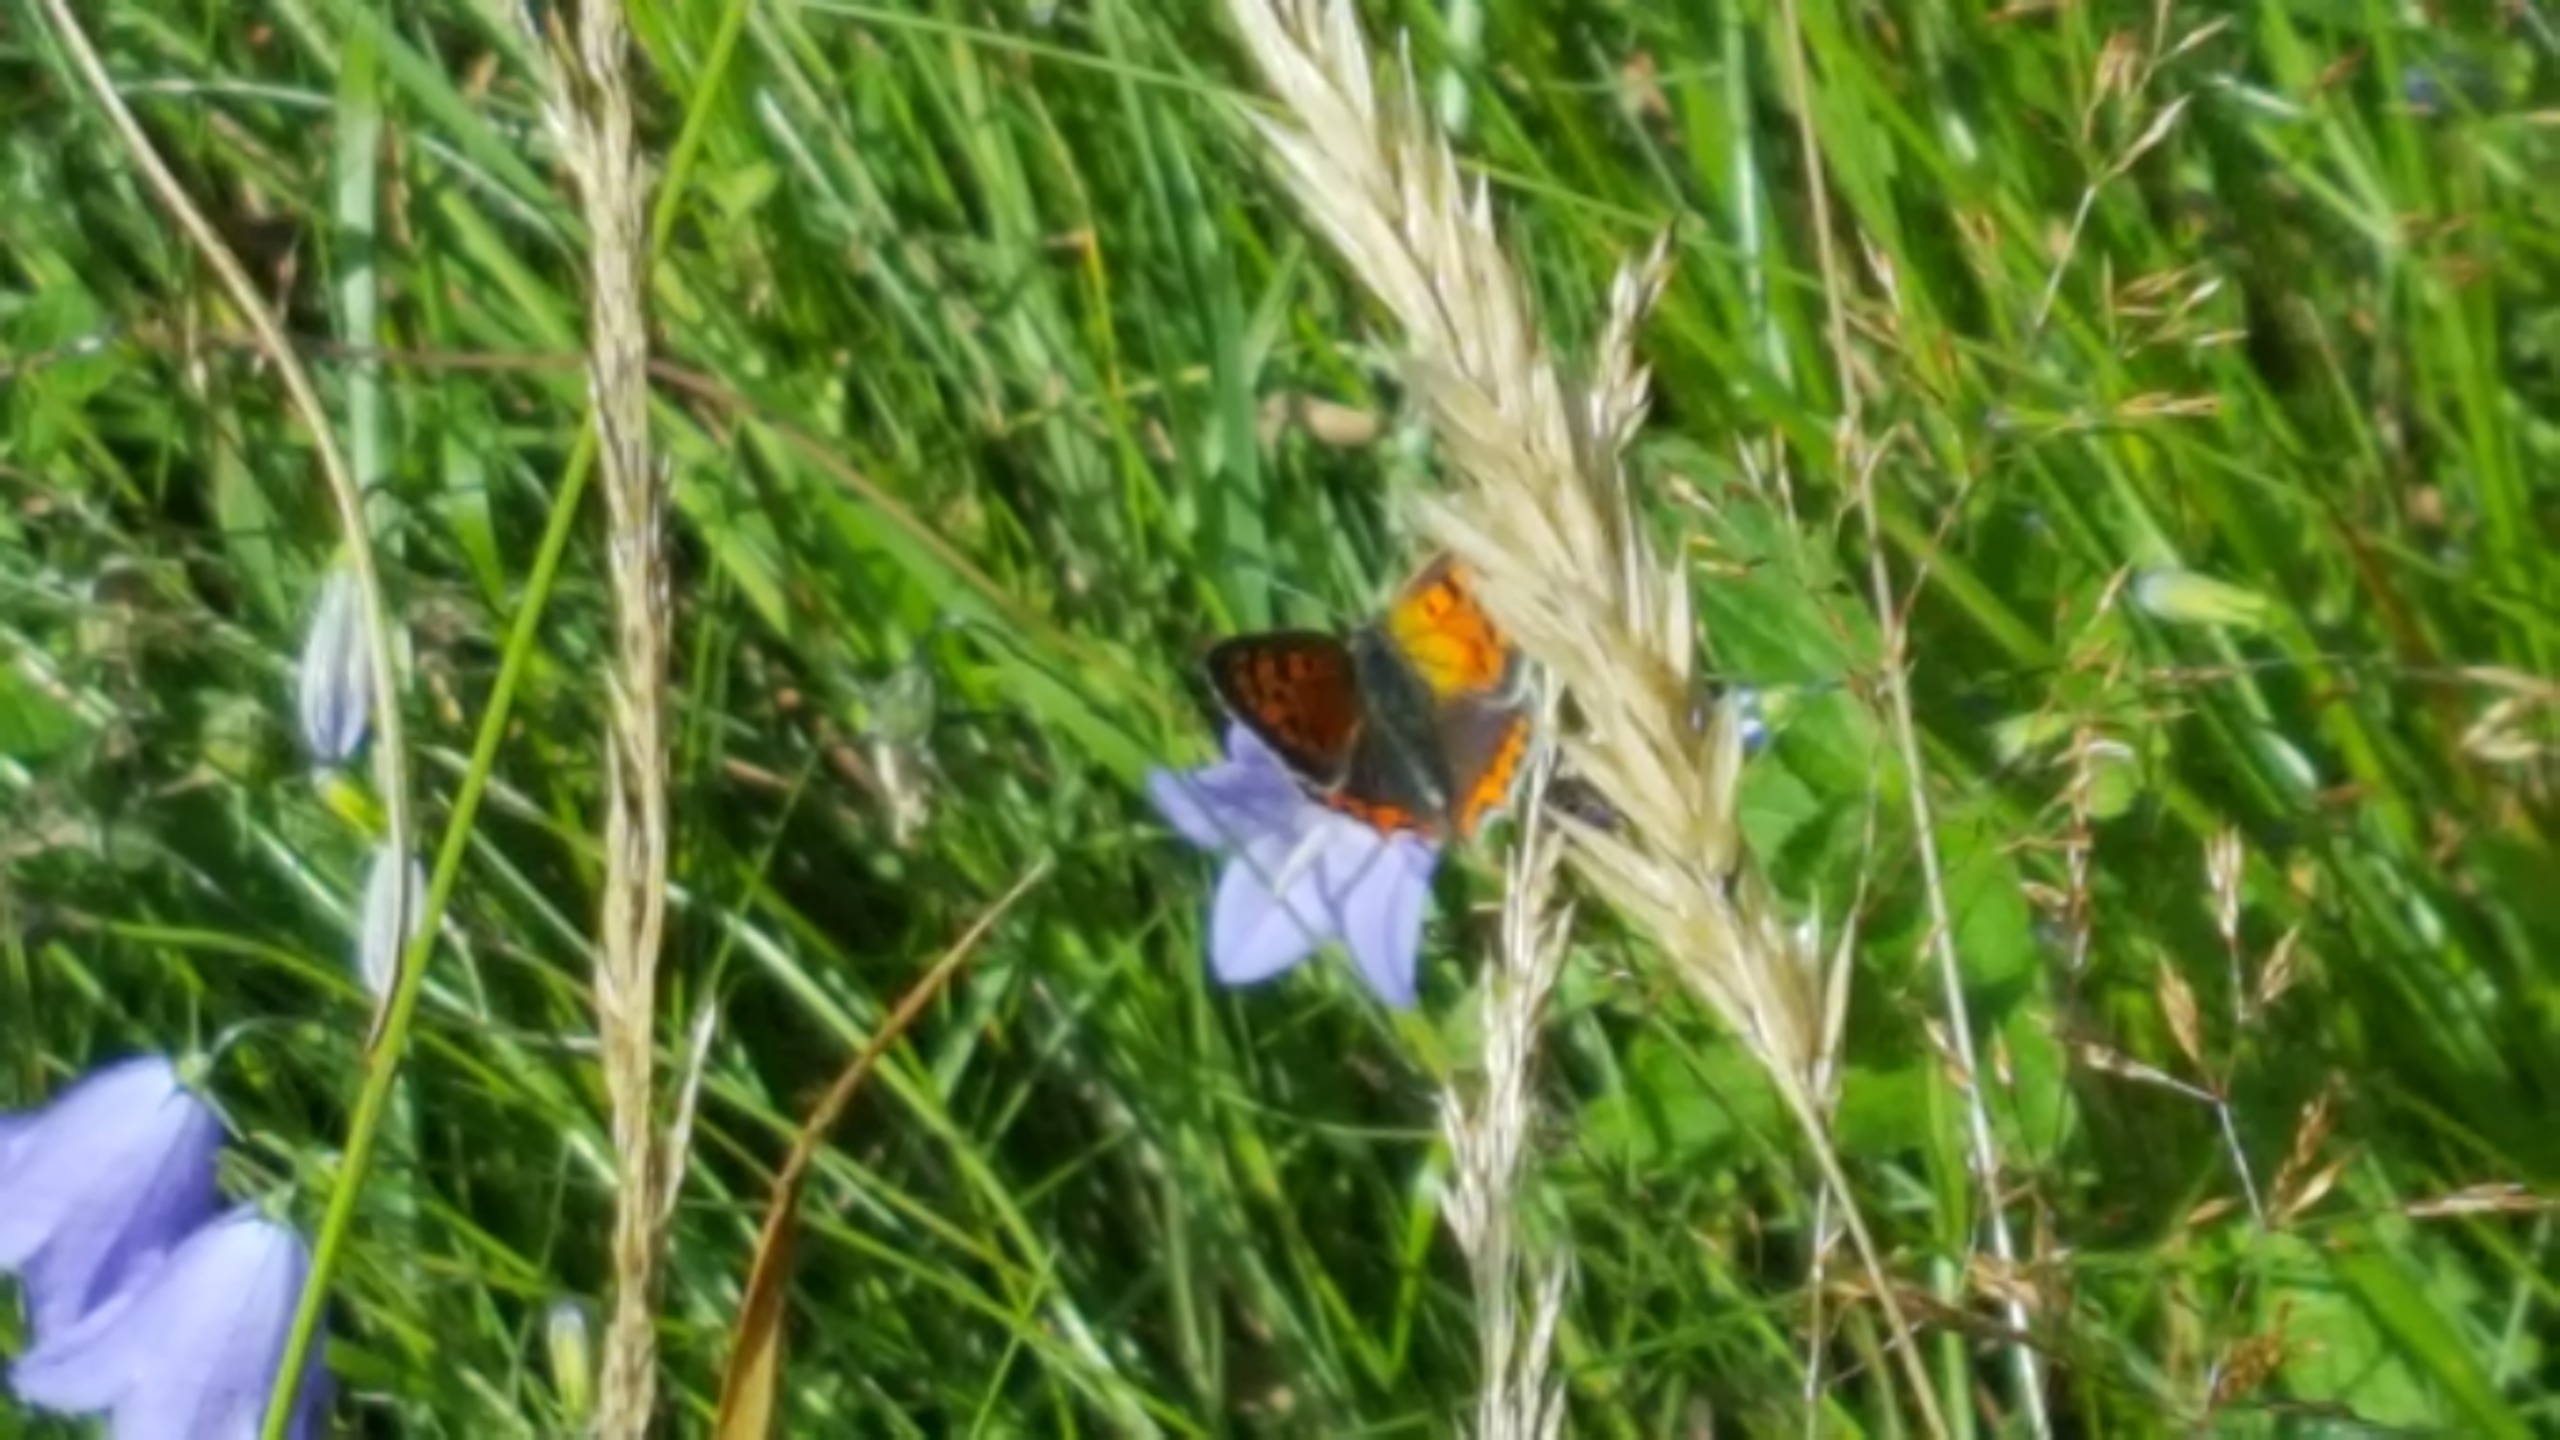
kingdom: Animalia
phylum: Arthropoda
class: Insecta
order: Lepidoptera
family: Lycaenidae
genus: Lycaena
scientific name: Lycaena phlaeas
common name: Lille ildfugl
